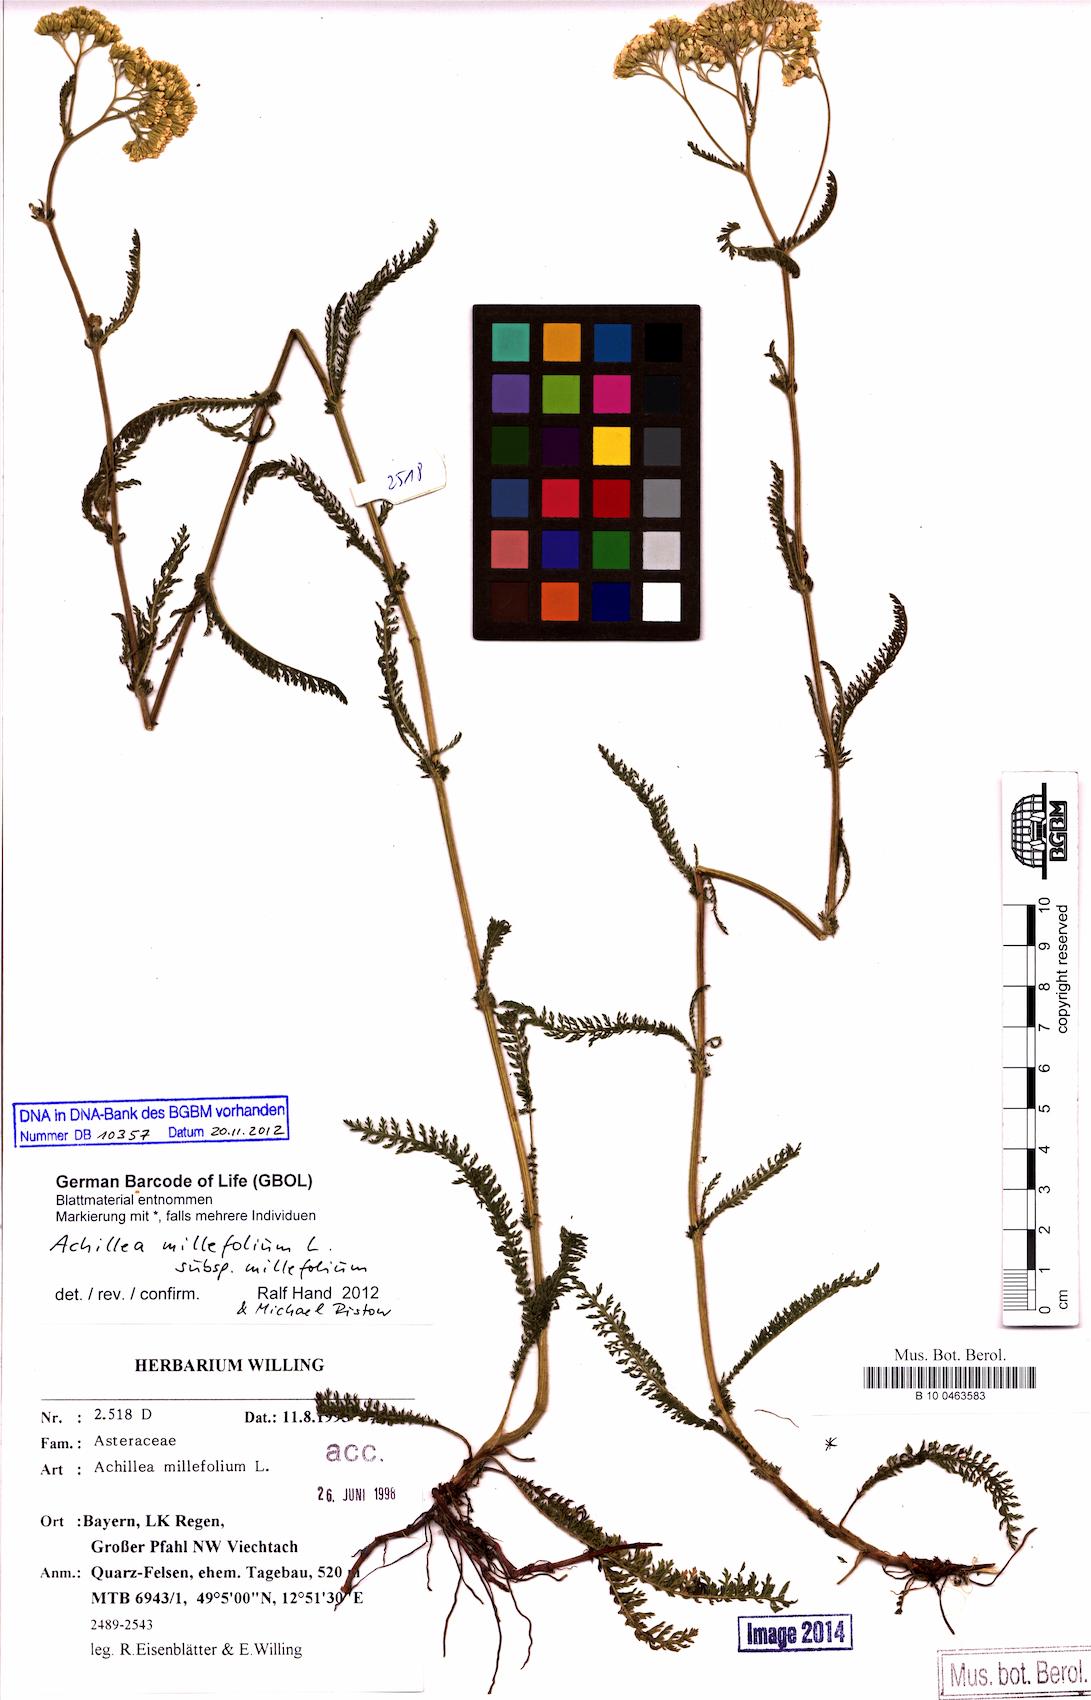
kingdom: Plantae
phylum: Tracheophyta
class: Magnoliopsida
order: Asterales
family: Asteraceae
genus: Achillea
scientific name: Achillea millefolium
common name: Yarrow
